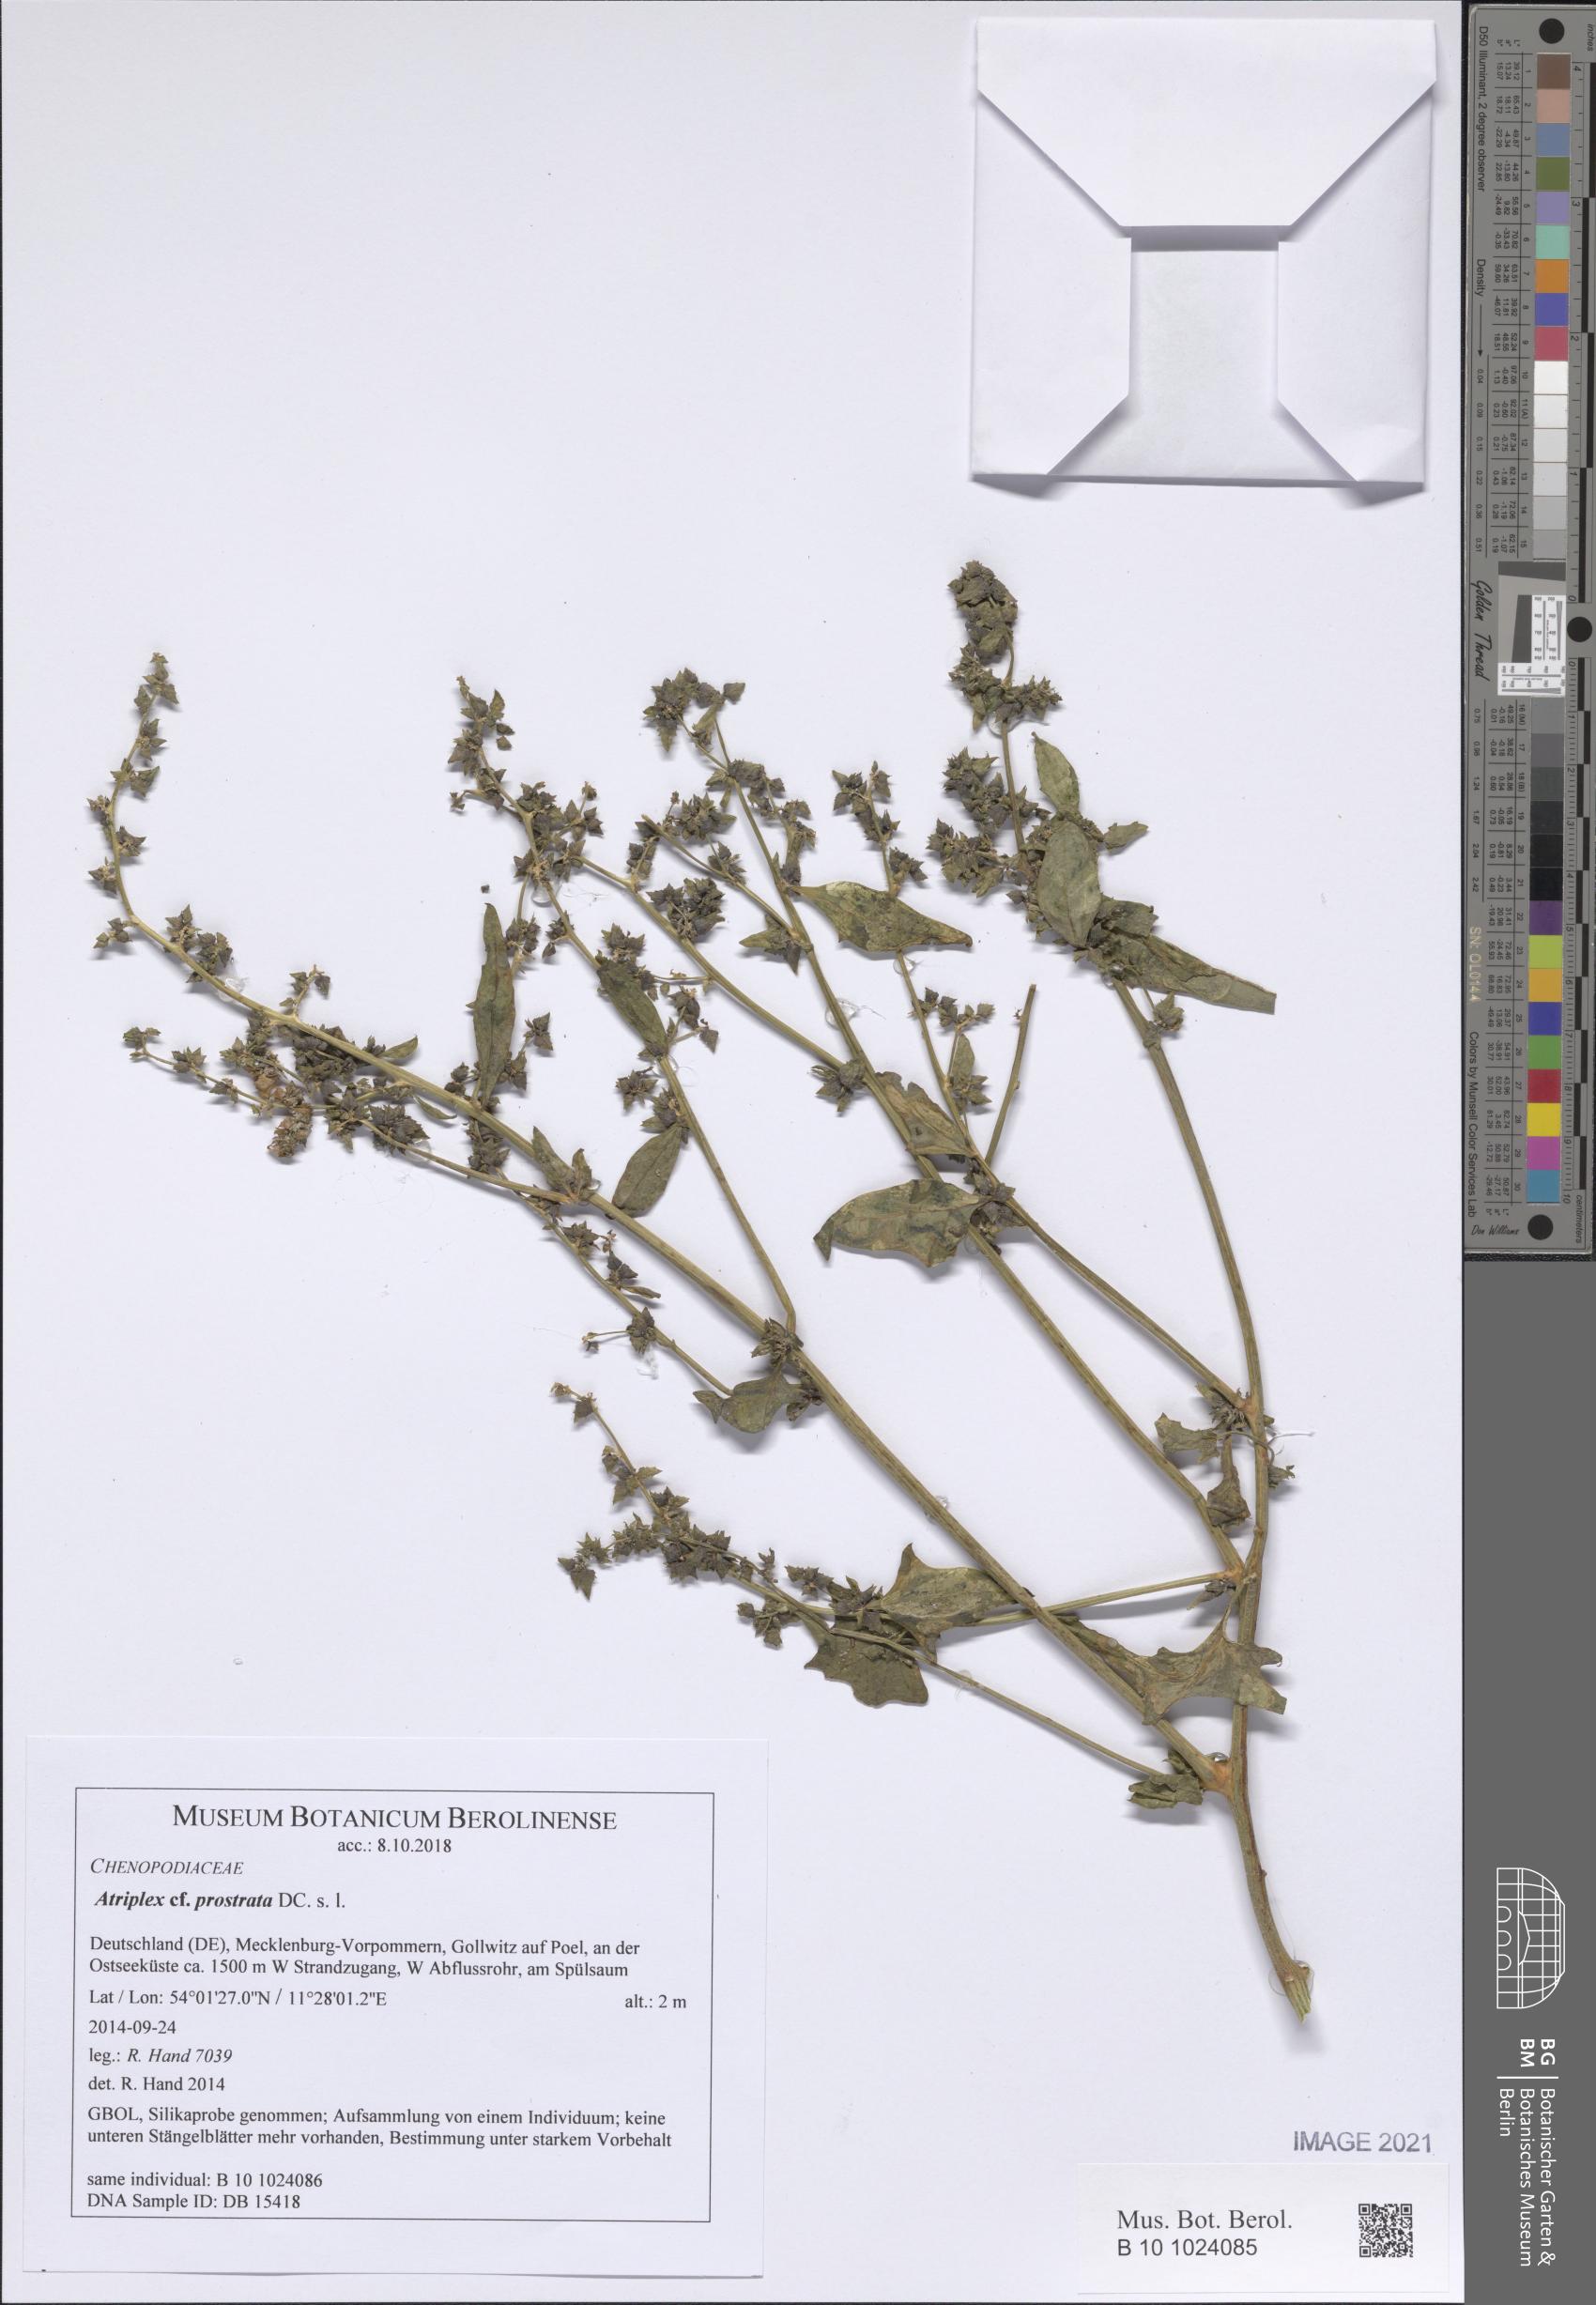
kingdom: Plantae
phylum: Tracheophyta
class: Magnoliopsida
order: Caryophyllales
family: Amaranthaceae
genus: Atriplex
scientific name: Atriplex prostrata
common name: Spear-leaved orache
